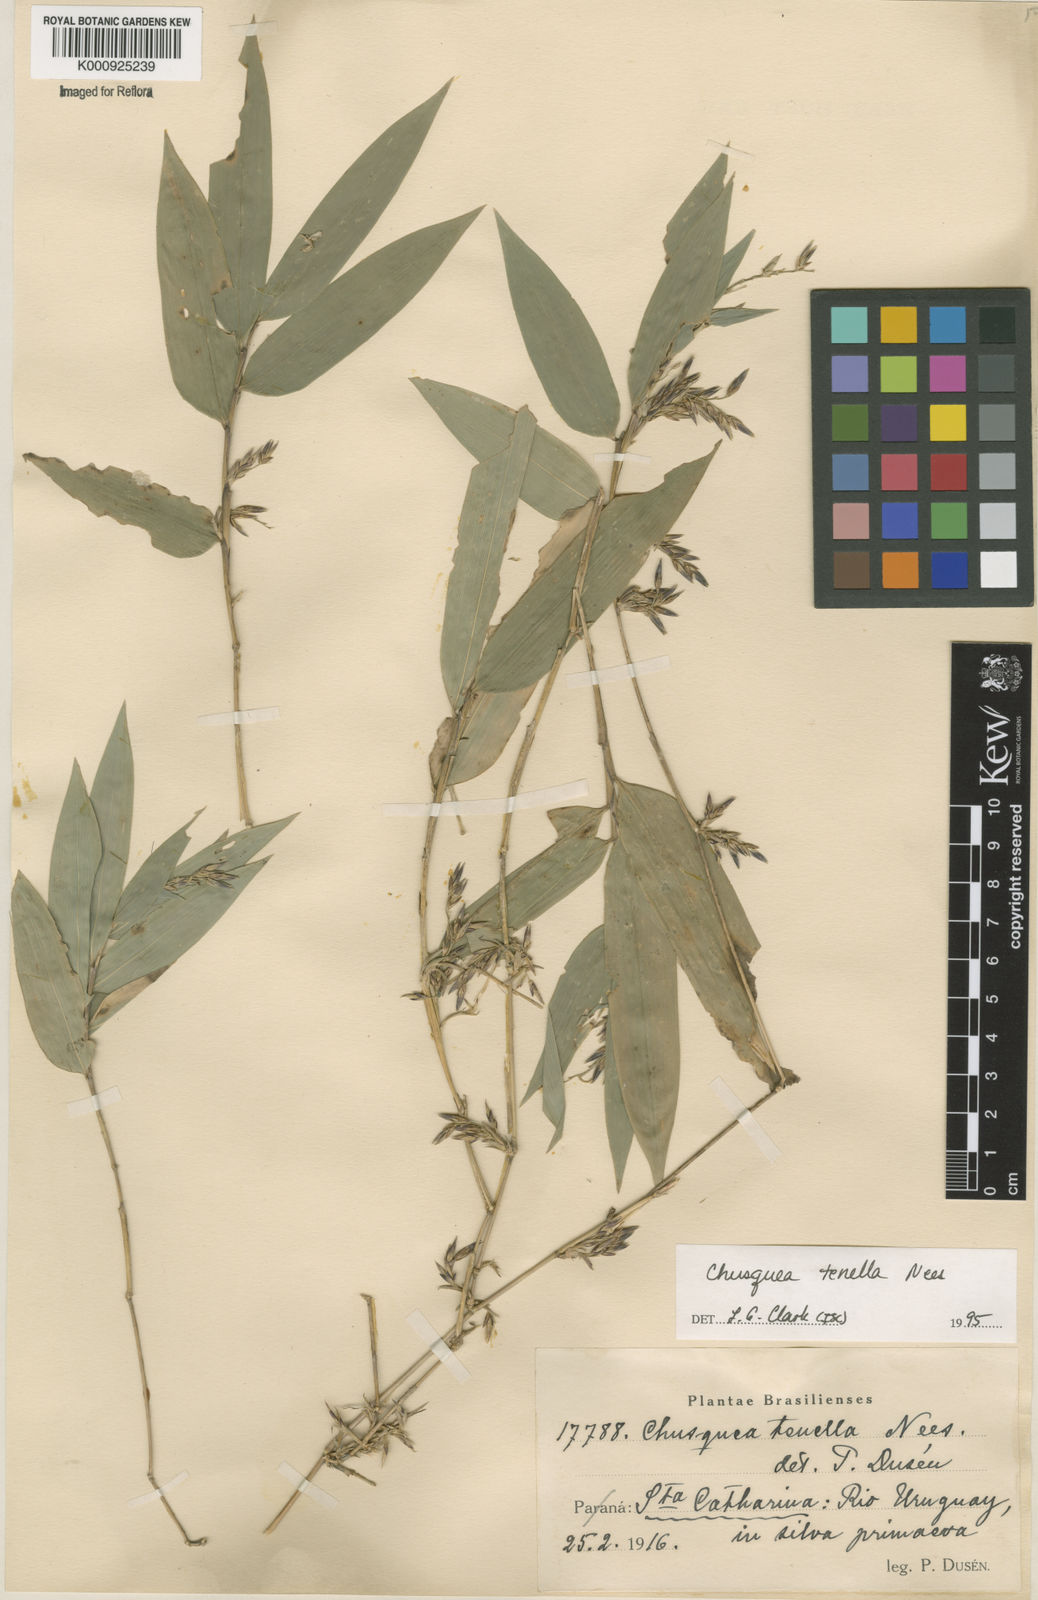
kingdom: Plantae
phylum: Tracheophyta
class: Liliopsida
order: Poales
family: Poaceae
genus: Chusquea
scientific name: Chusquea tenella
